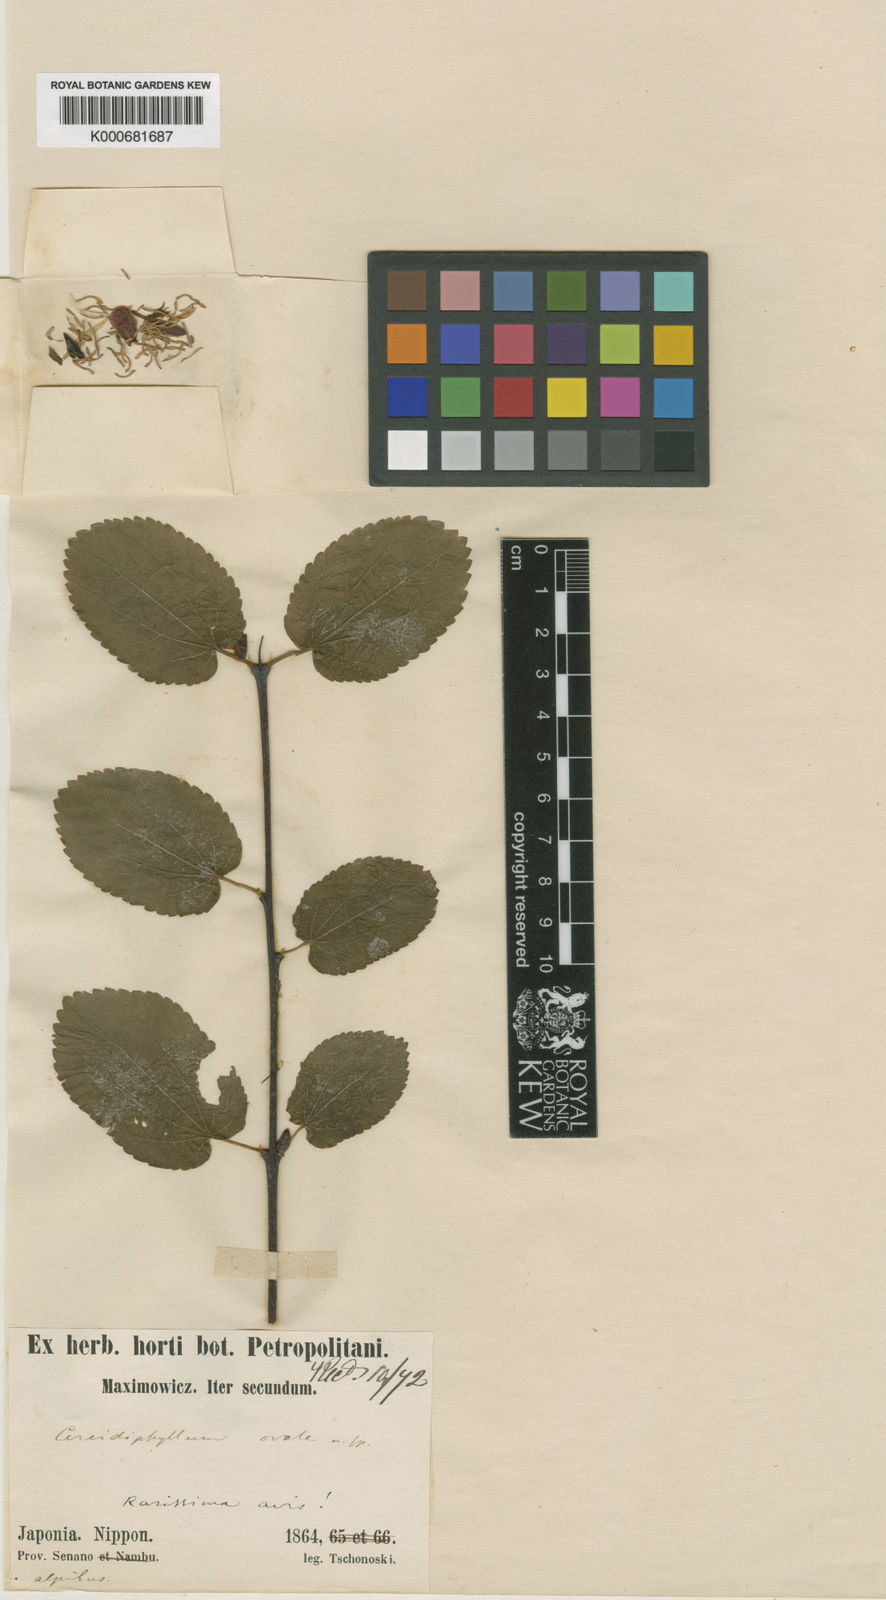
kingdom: Plantae
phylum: Tracheophyta
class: Magnoliopsida
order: Saxifragales
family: Cercidiphyllaceae
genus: Cercidiphyllum
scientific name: Cercidiphyllum japonicum
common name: Katsura tree
